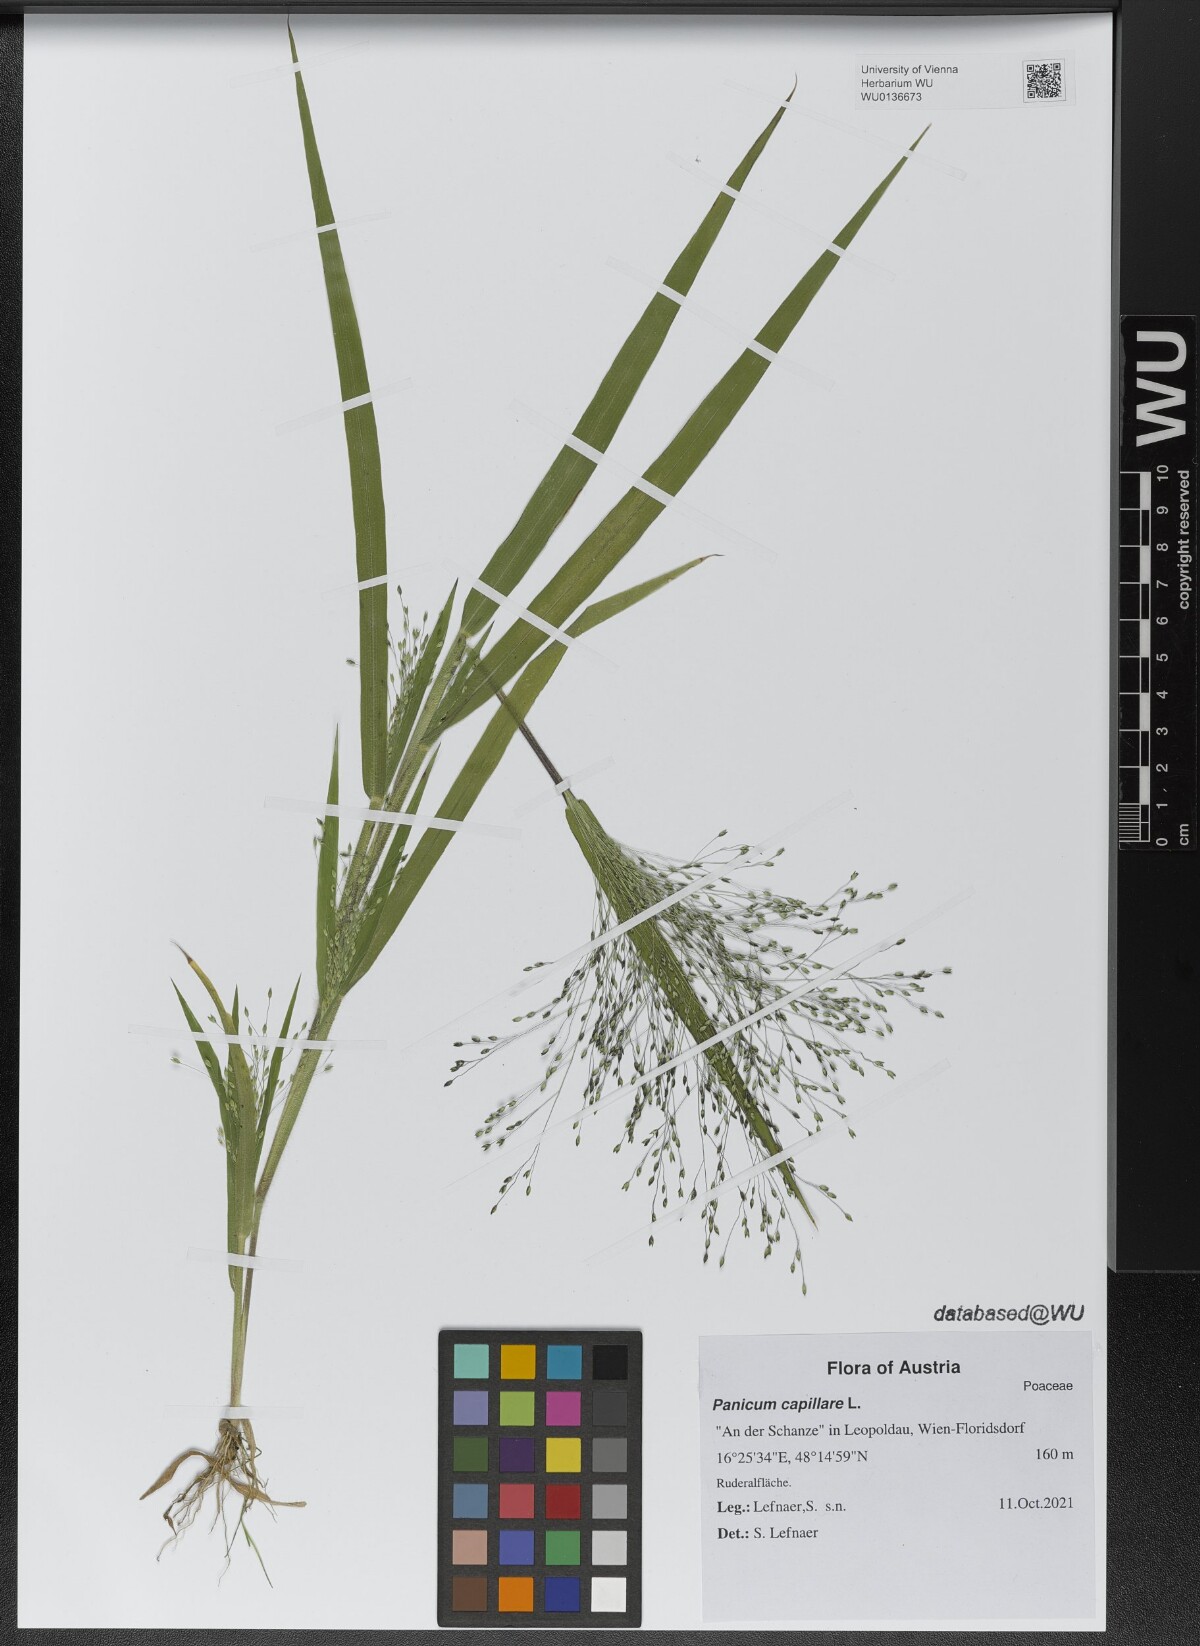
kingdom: Plantae
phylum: Tracheophyta
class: Liliopsida
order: Poales
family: Poaceae
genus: Panicum
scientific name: Panicum capillare
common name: Witch-grass
